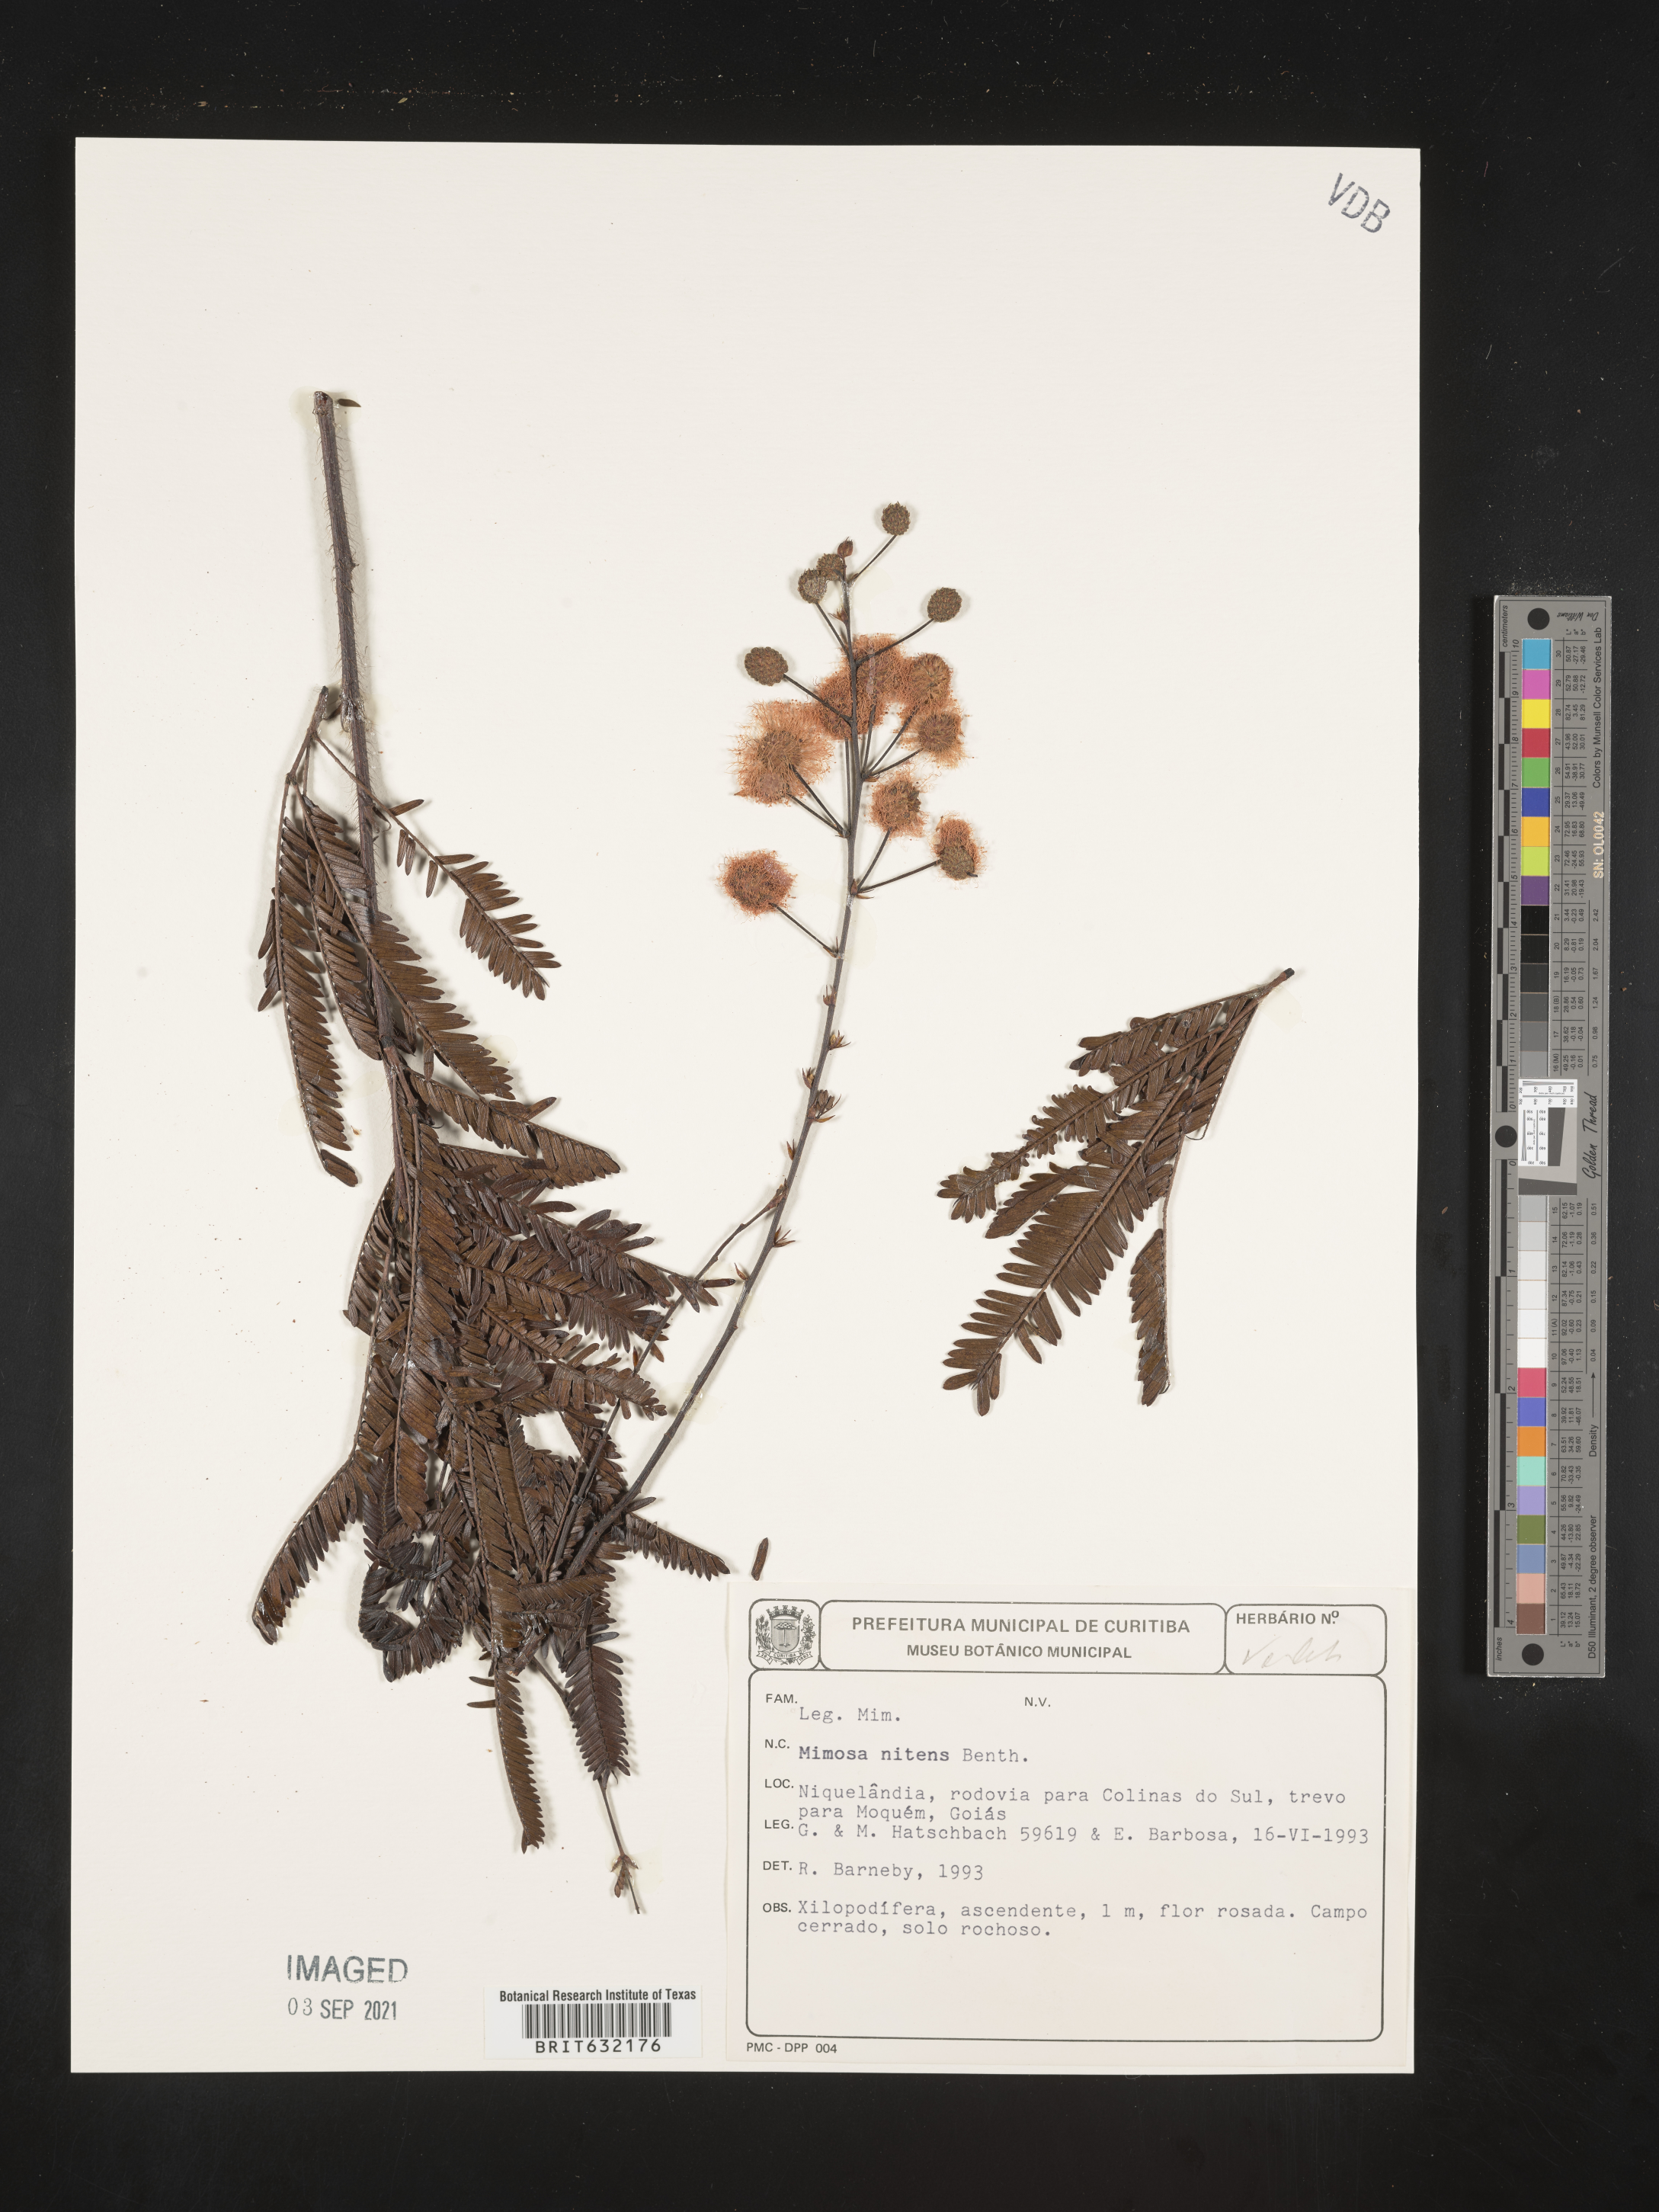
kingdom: Plantae
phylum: Tracheophyta
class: Magnoliopsida
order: Fabales
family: Fabaceae
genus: Mimosa
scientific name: Mimosa
